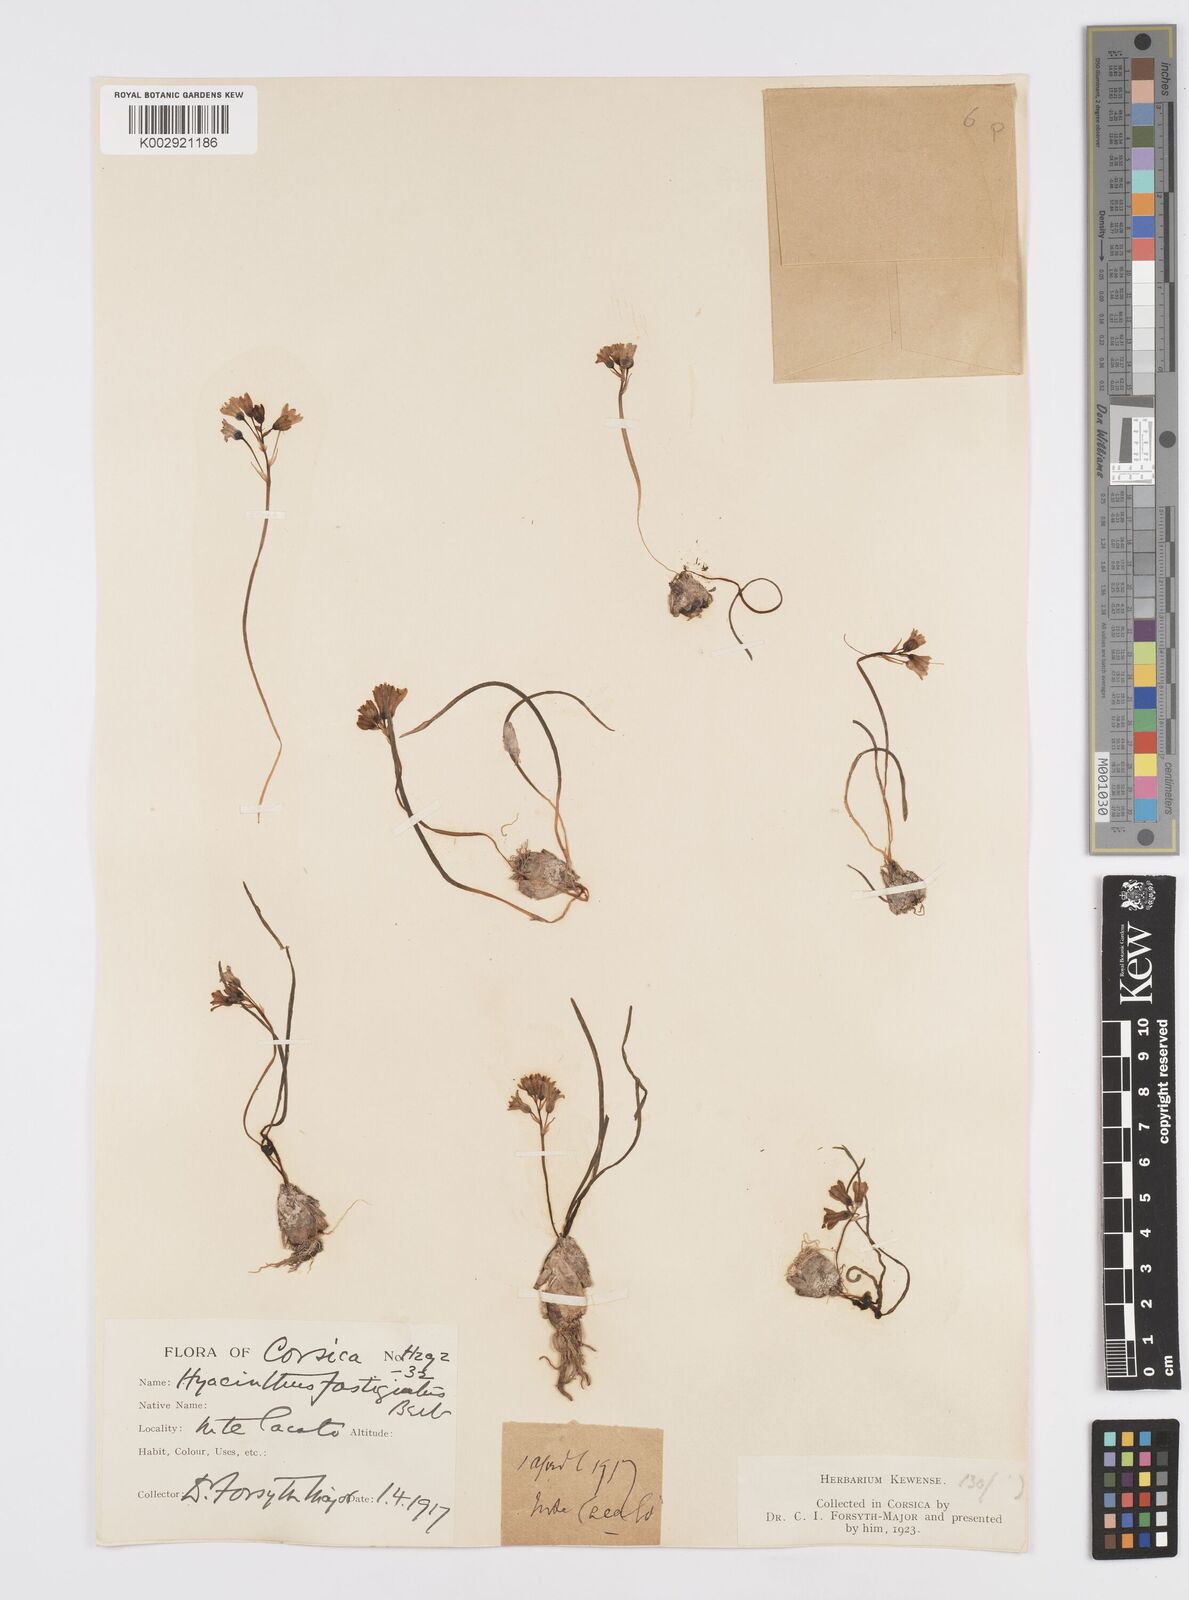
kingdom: Plantae
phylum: Tracheophyta
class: Liliopsida
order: Asparagales
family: Asparagaceae
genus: Brimeura
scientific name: Brimeura fastigiata
